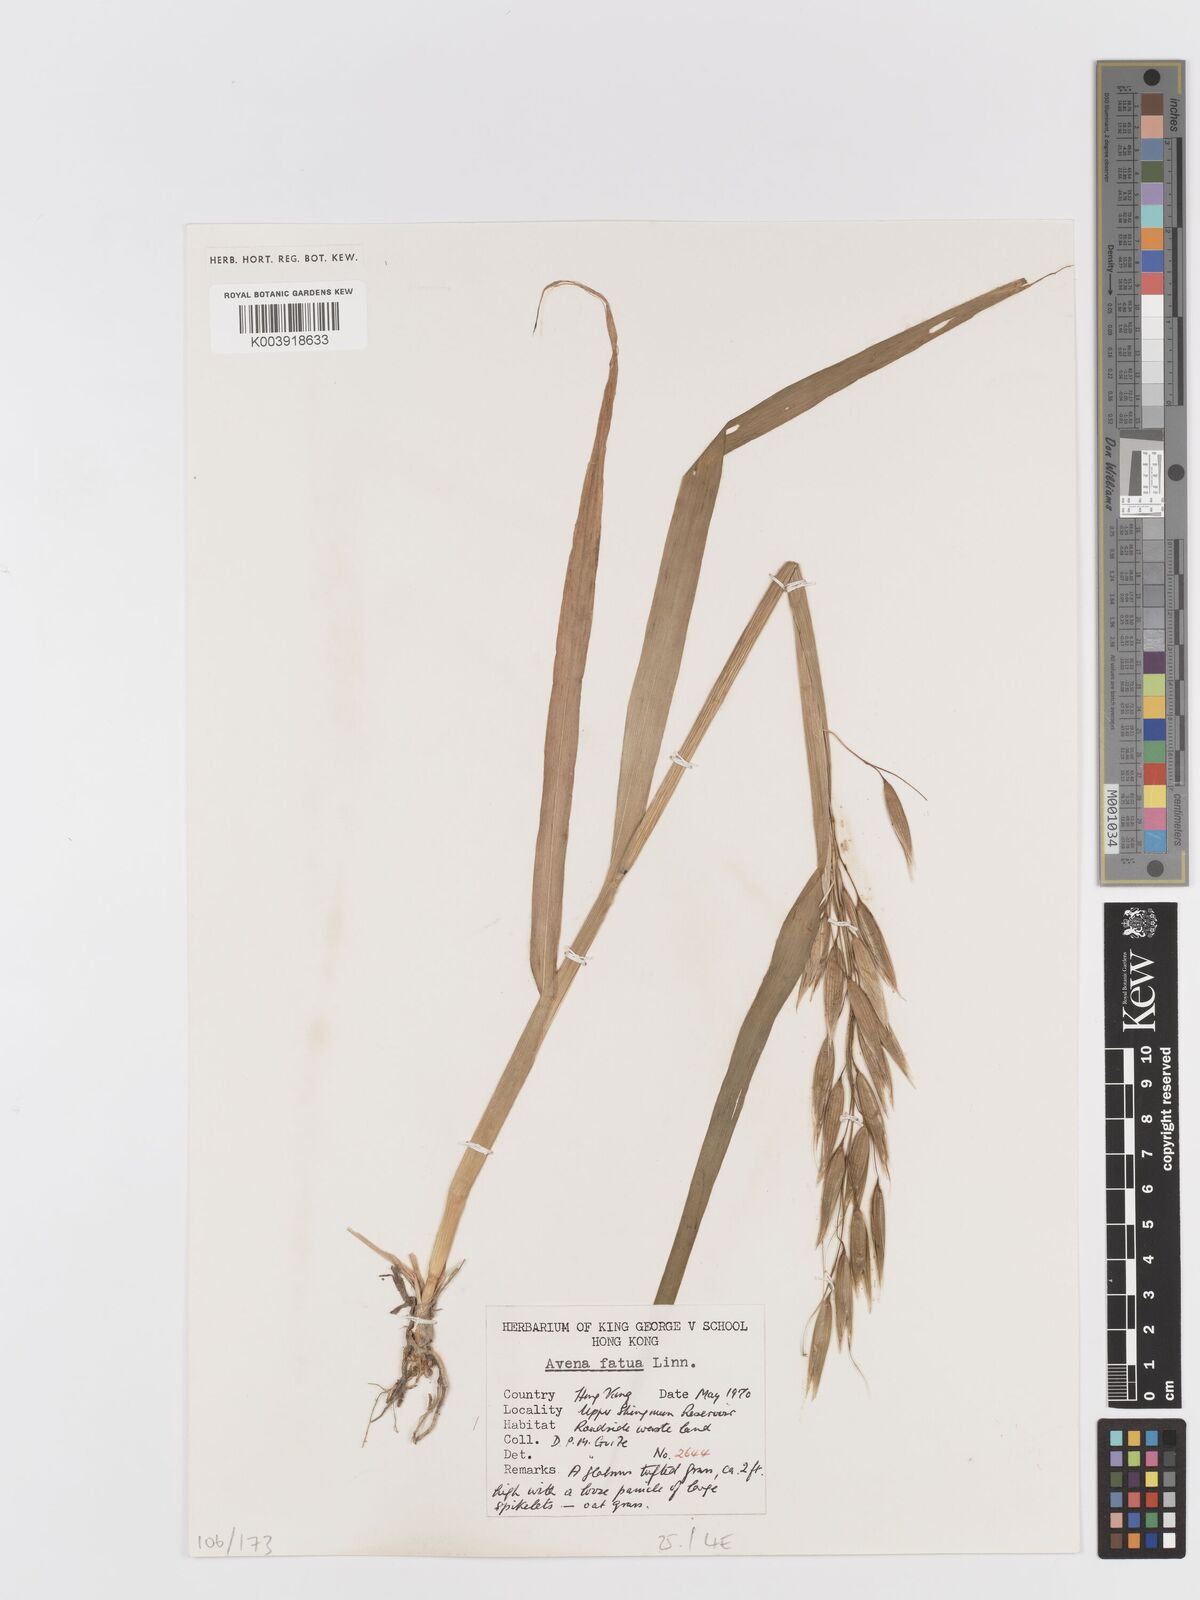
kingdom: Plantae
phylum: Tracheophyta
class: Liliopsida
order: Poales
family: Poaceae
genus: Avena
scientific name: Avena fatua
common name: Wild oat
